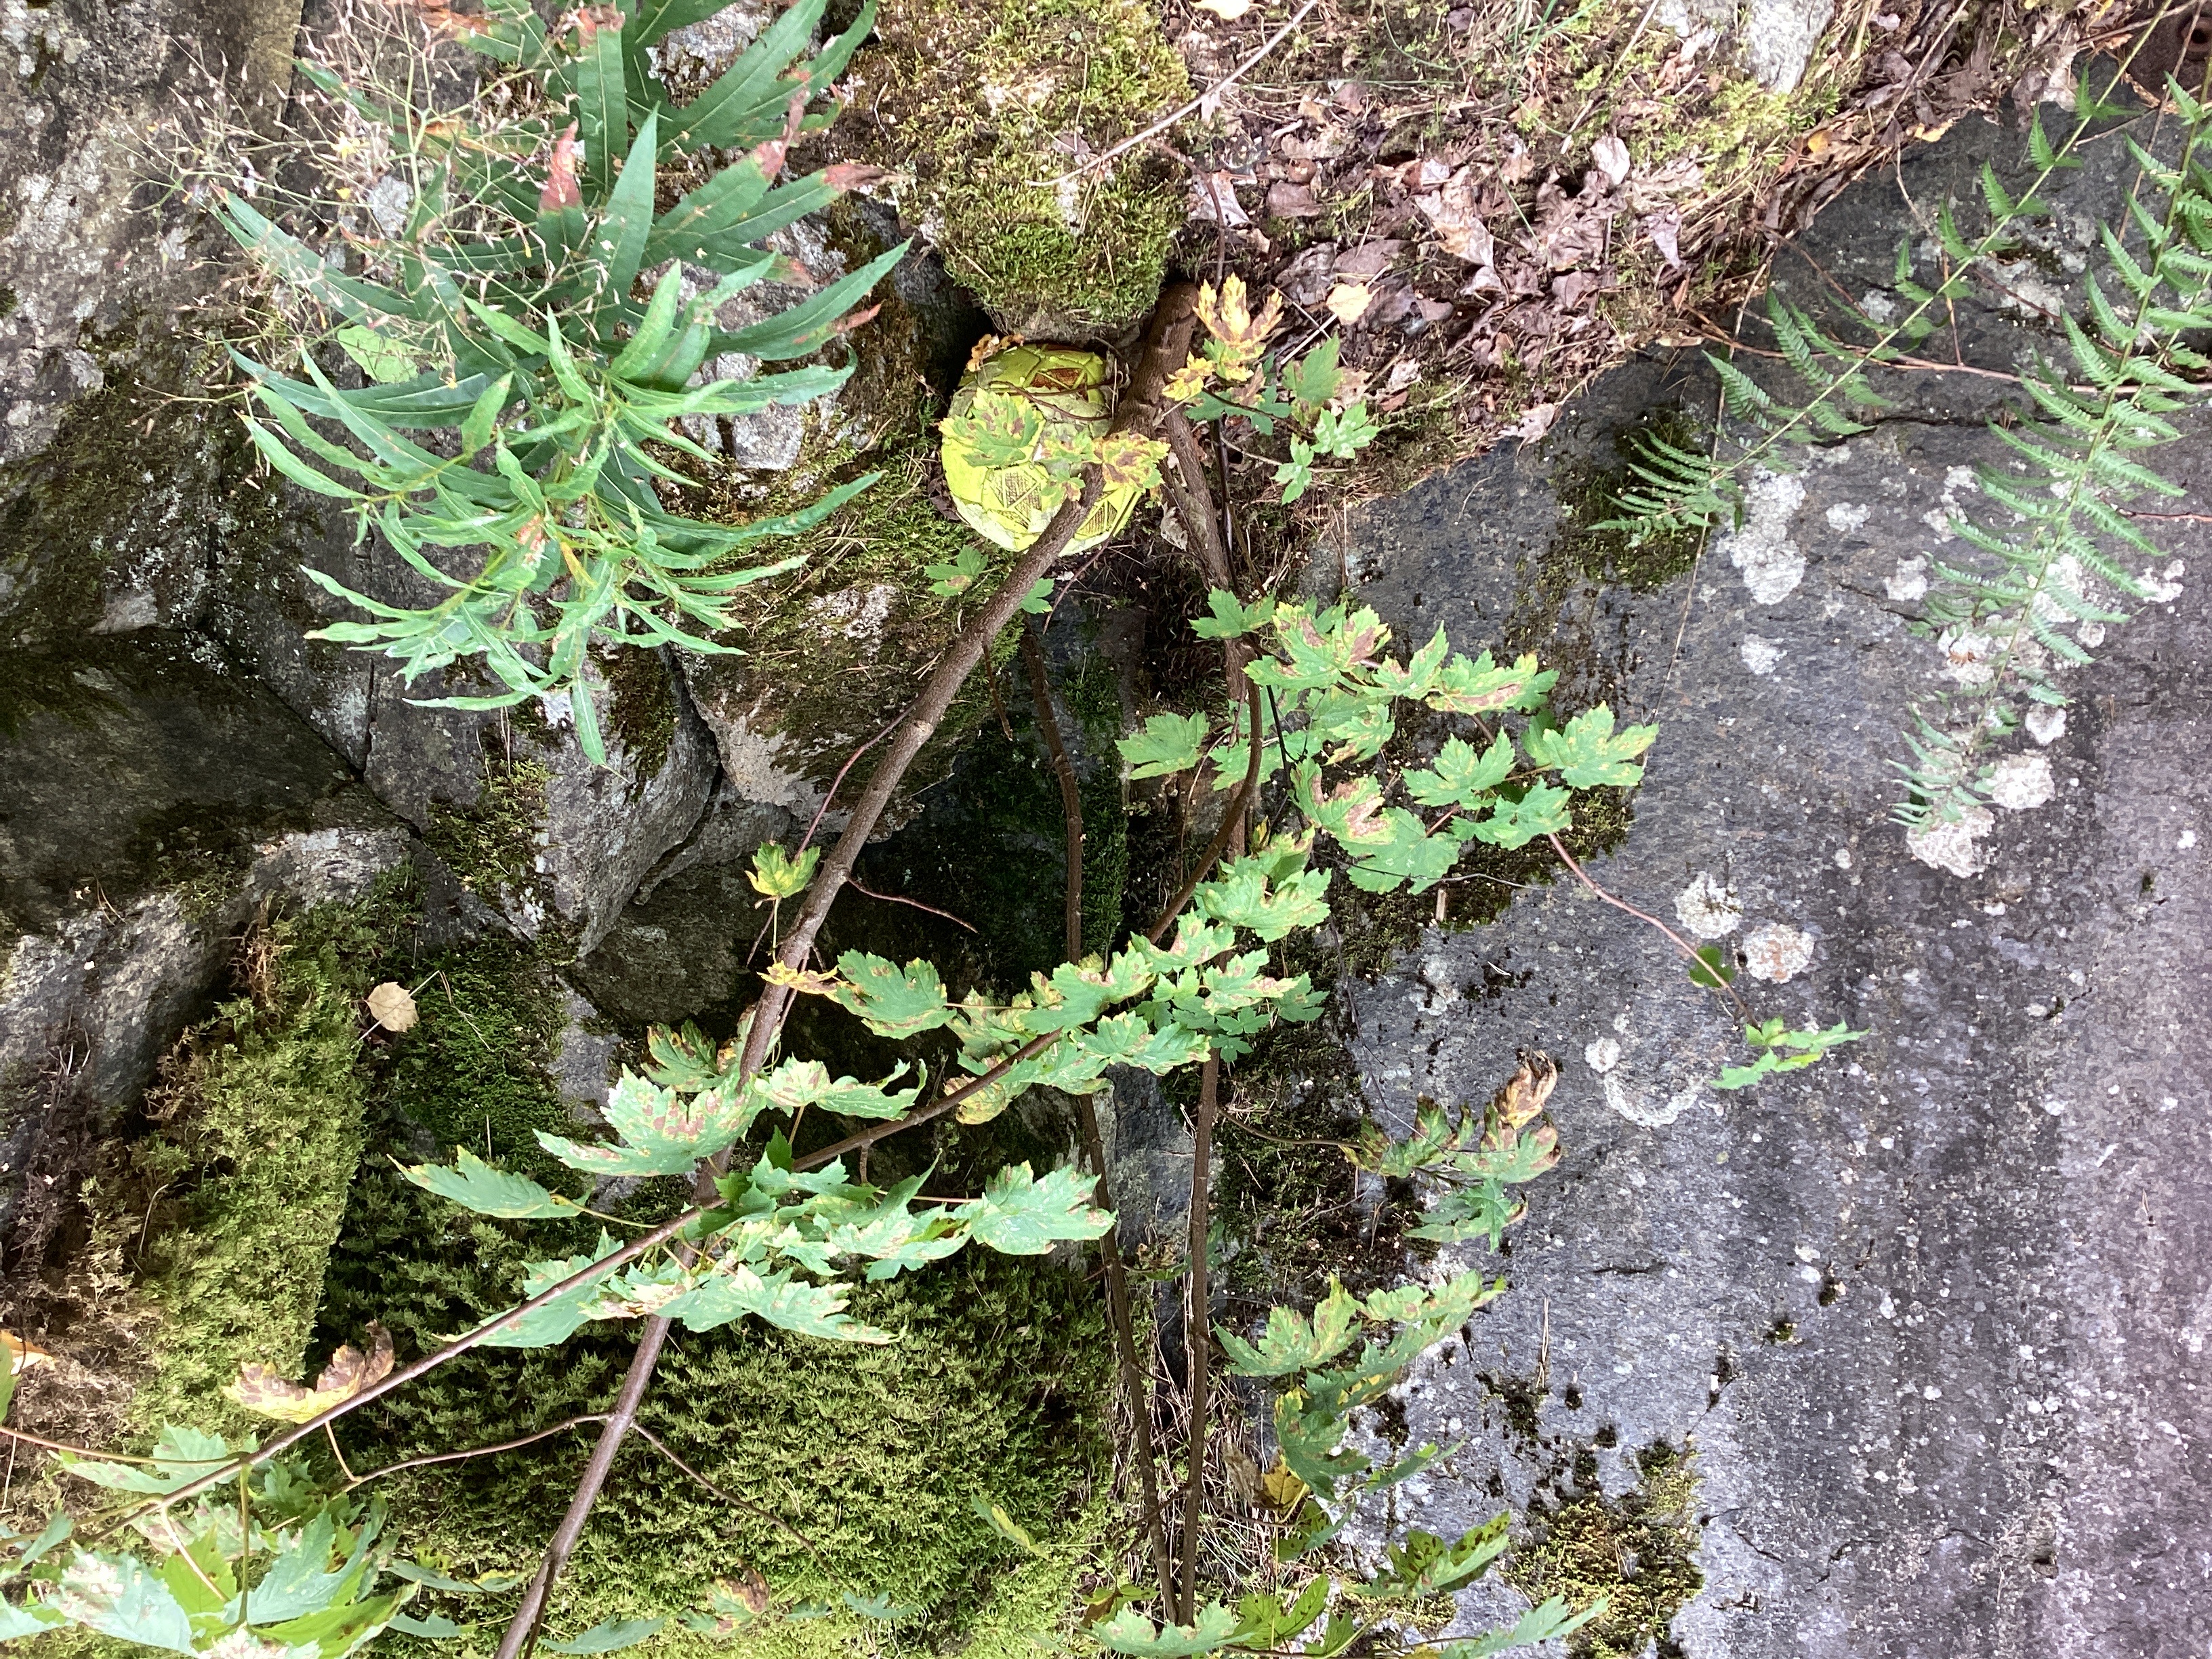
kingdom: Plantae
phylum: Tracheophyta
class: Magnoliopsida
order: Sapindales
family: Sapindaceae
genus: Acer
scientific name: Acer pseudoplatanus
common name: platanlønn
